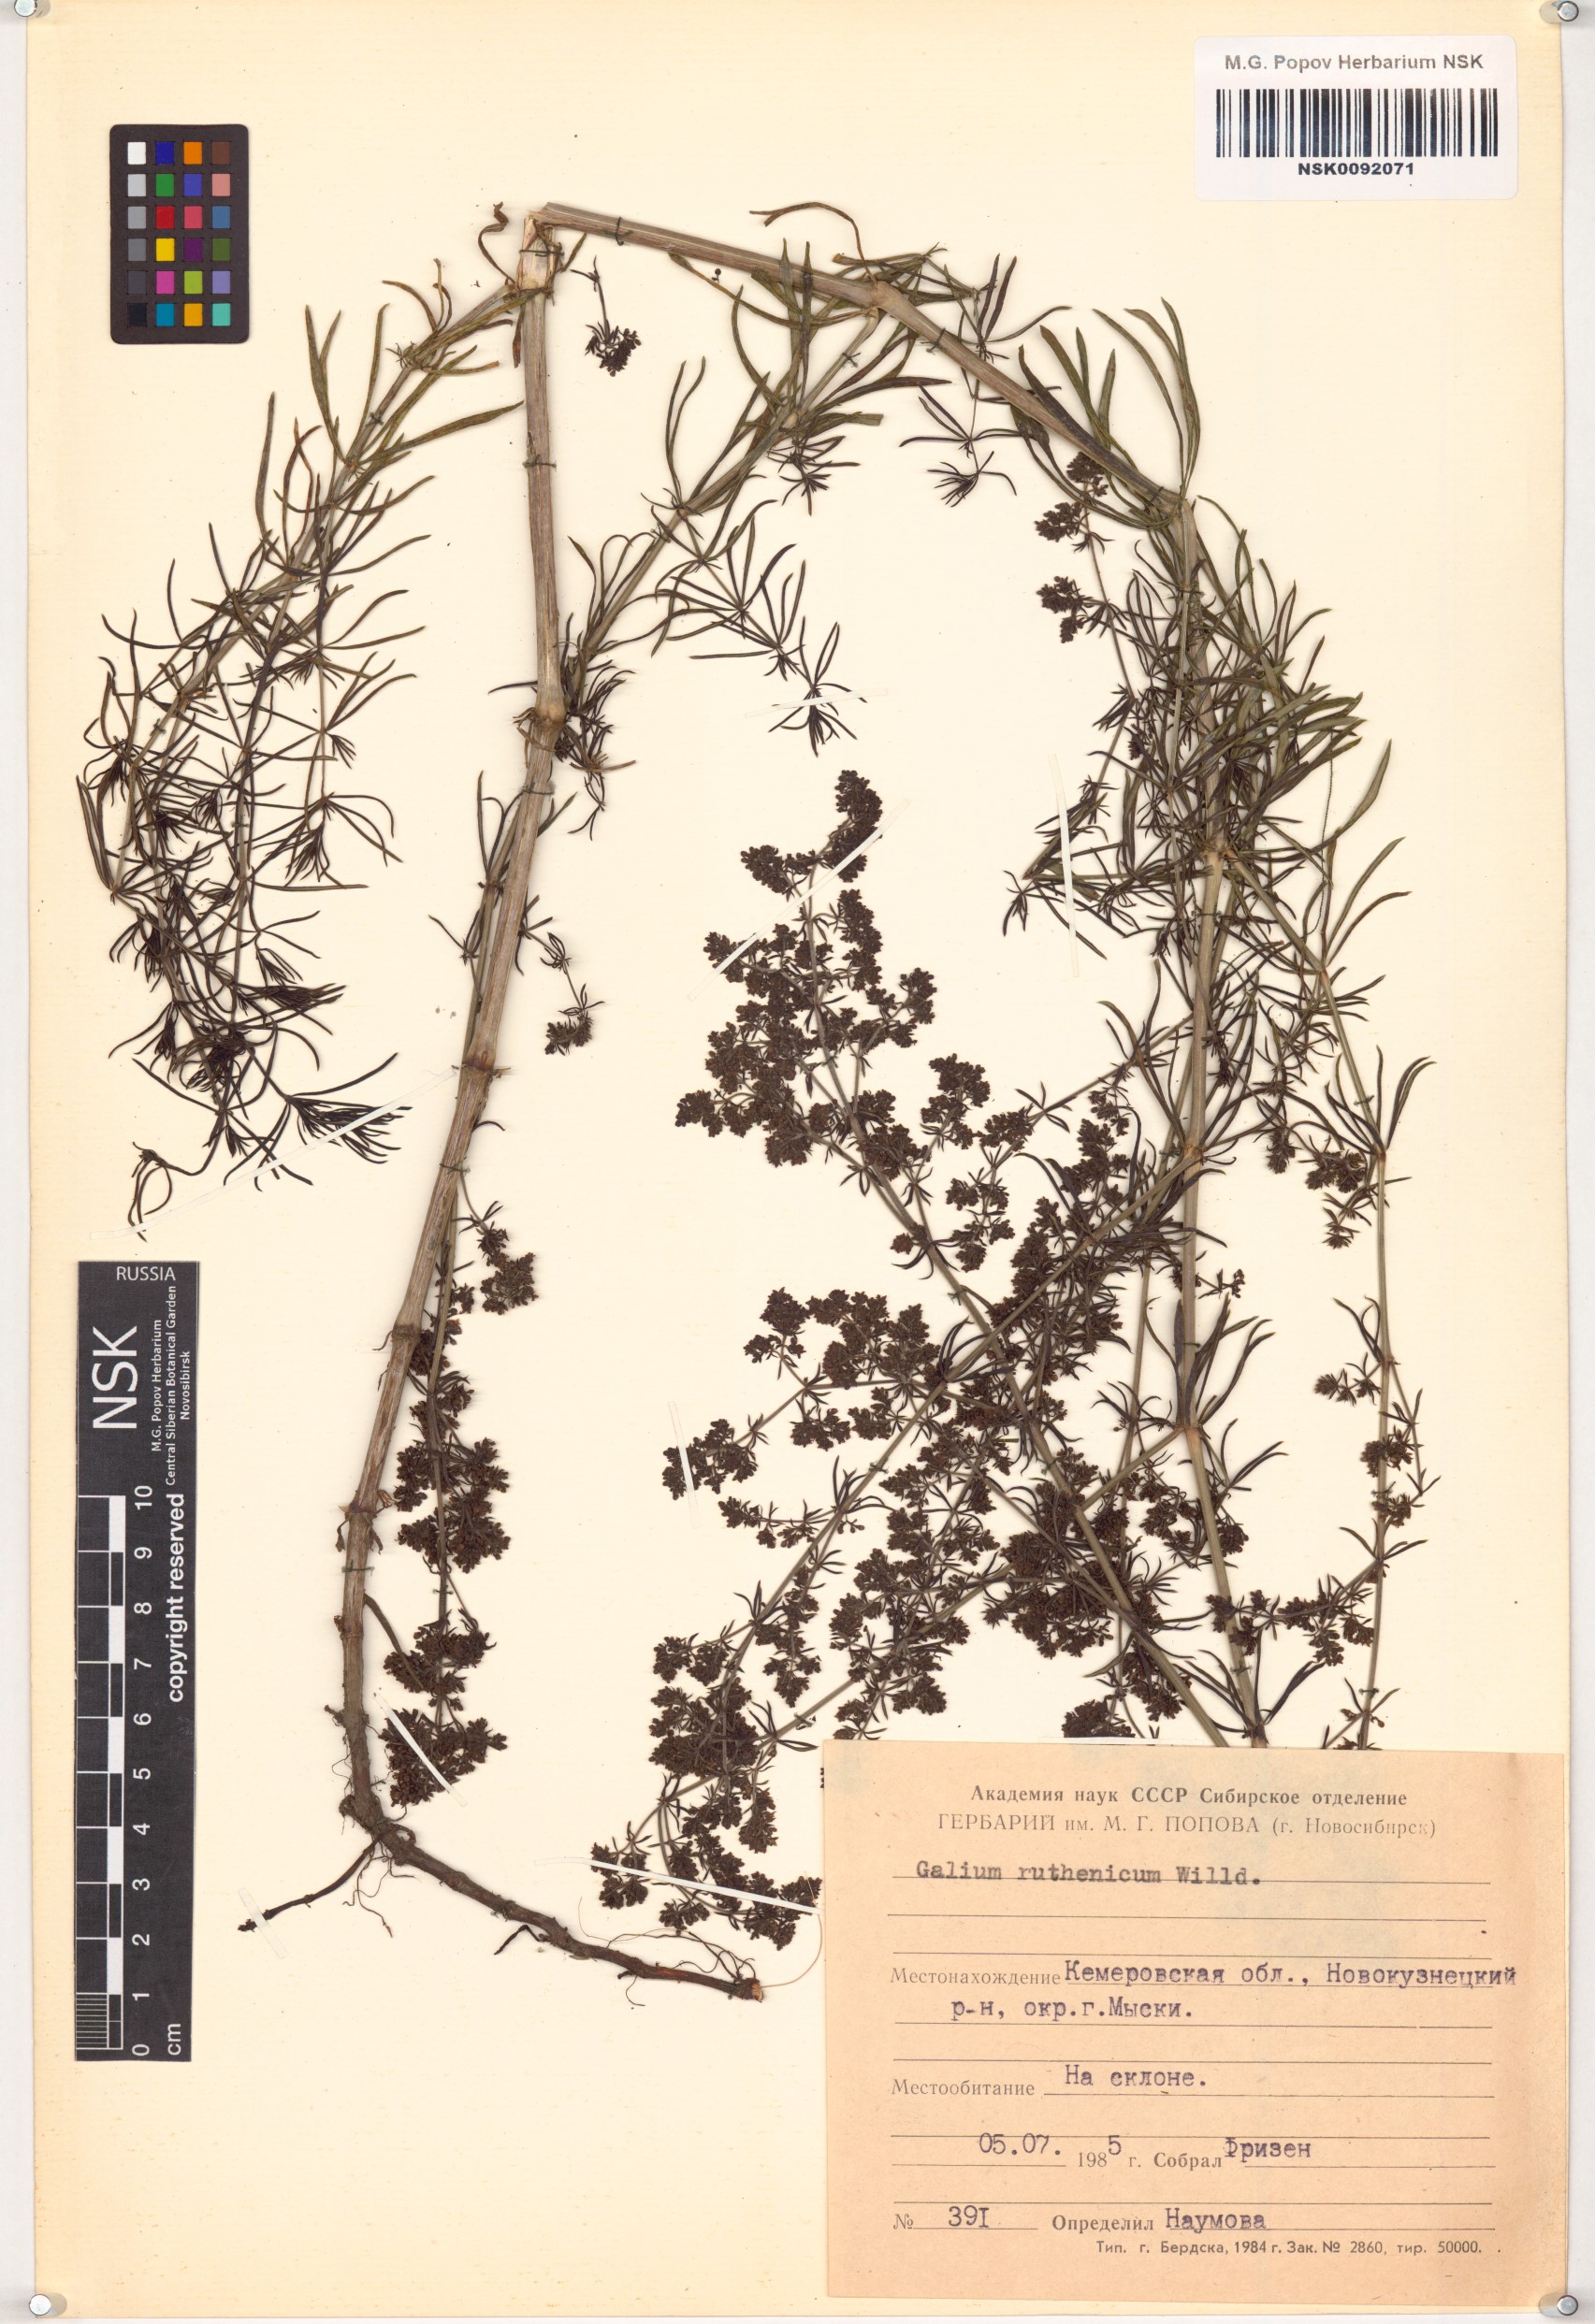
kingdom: Plantae
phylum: Tracheophyta
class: Magnoliopsida
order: Gentianales
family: Rubiaceae
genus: Galium
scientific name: Galium verum
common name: Lady's bedstraw
